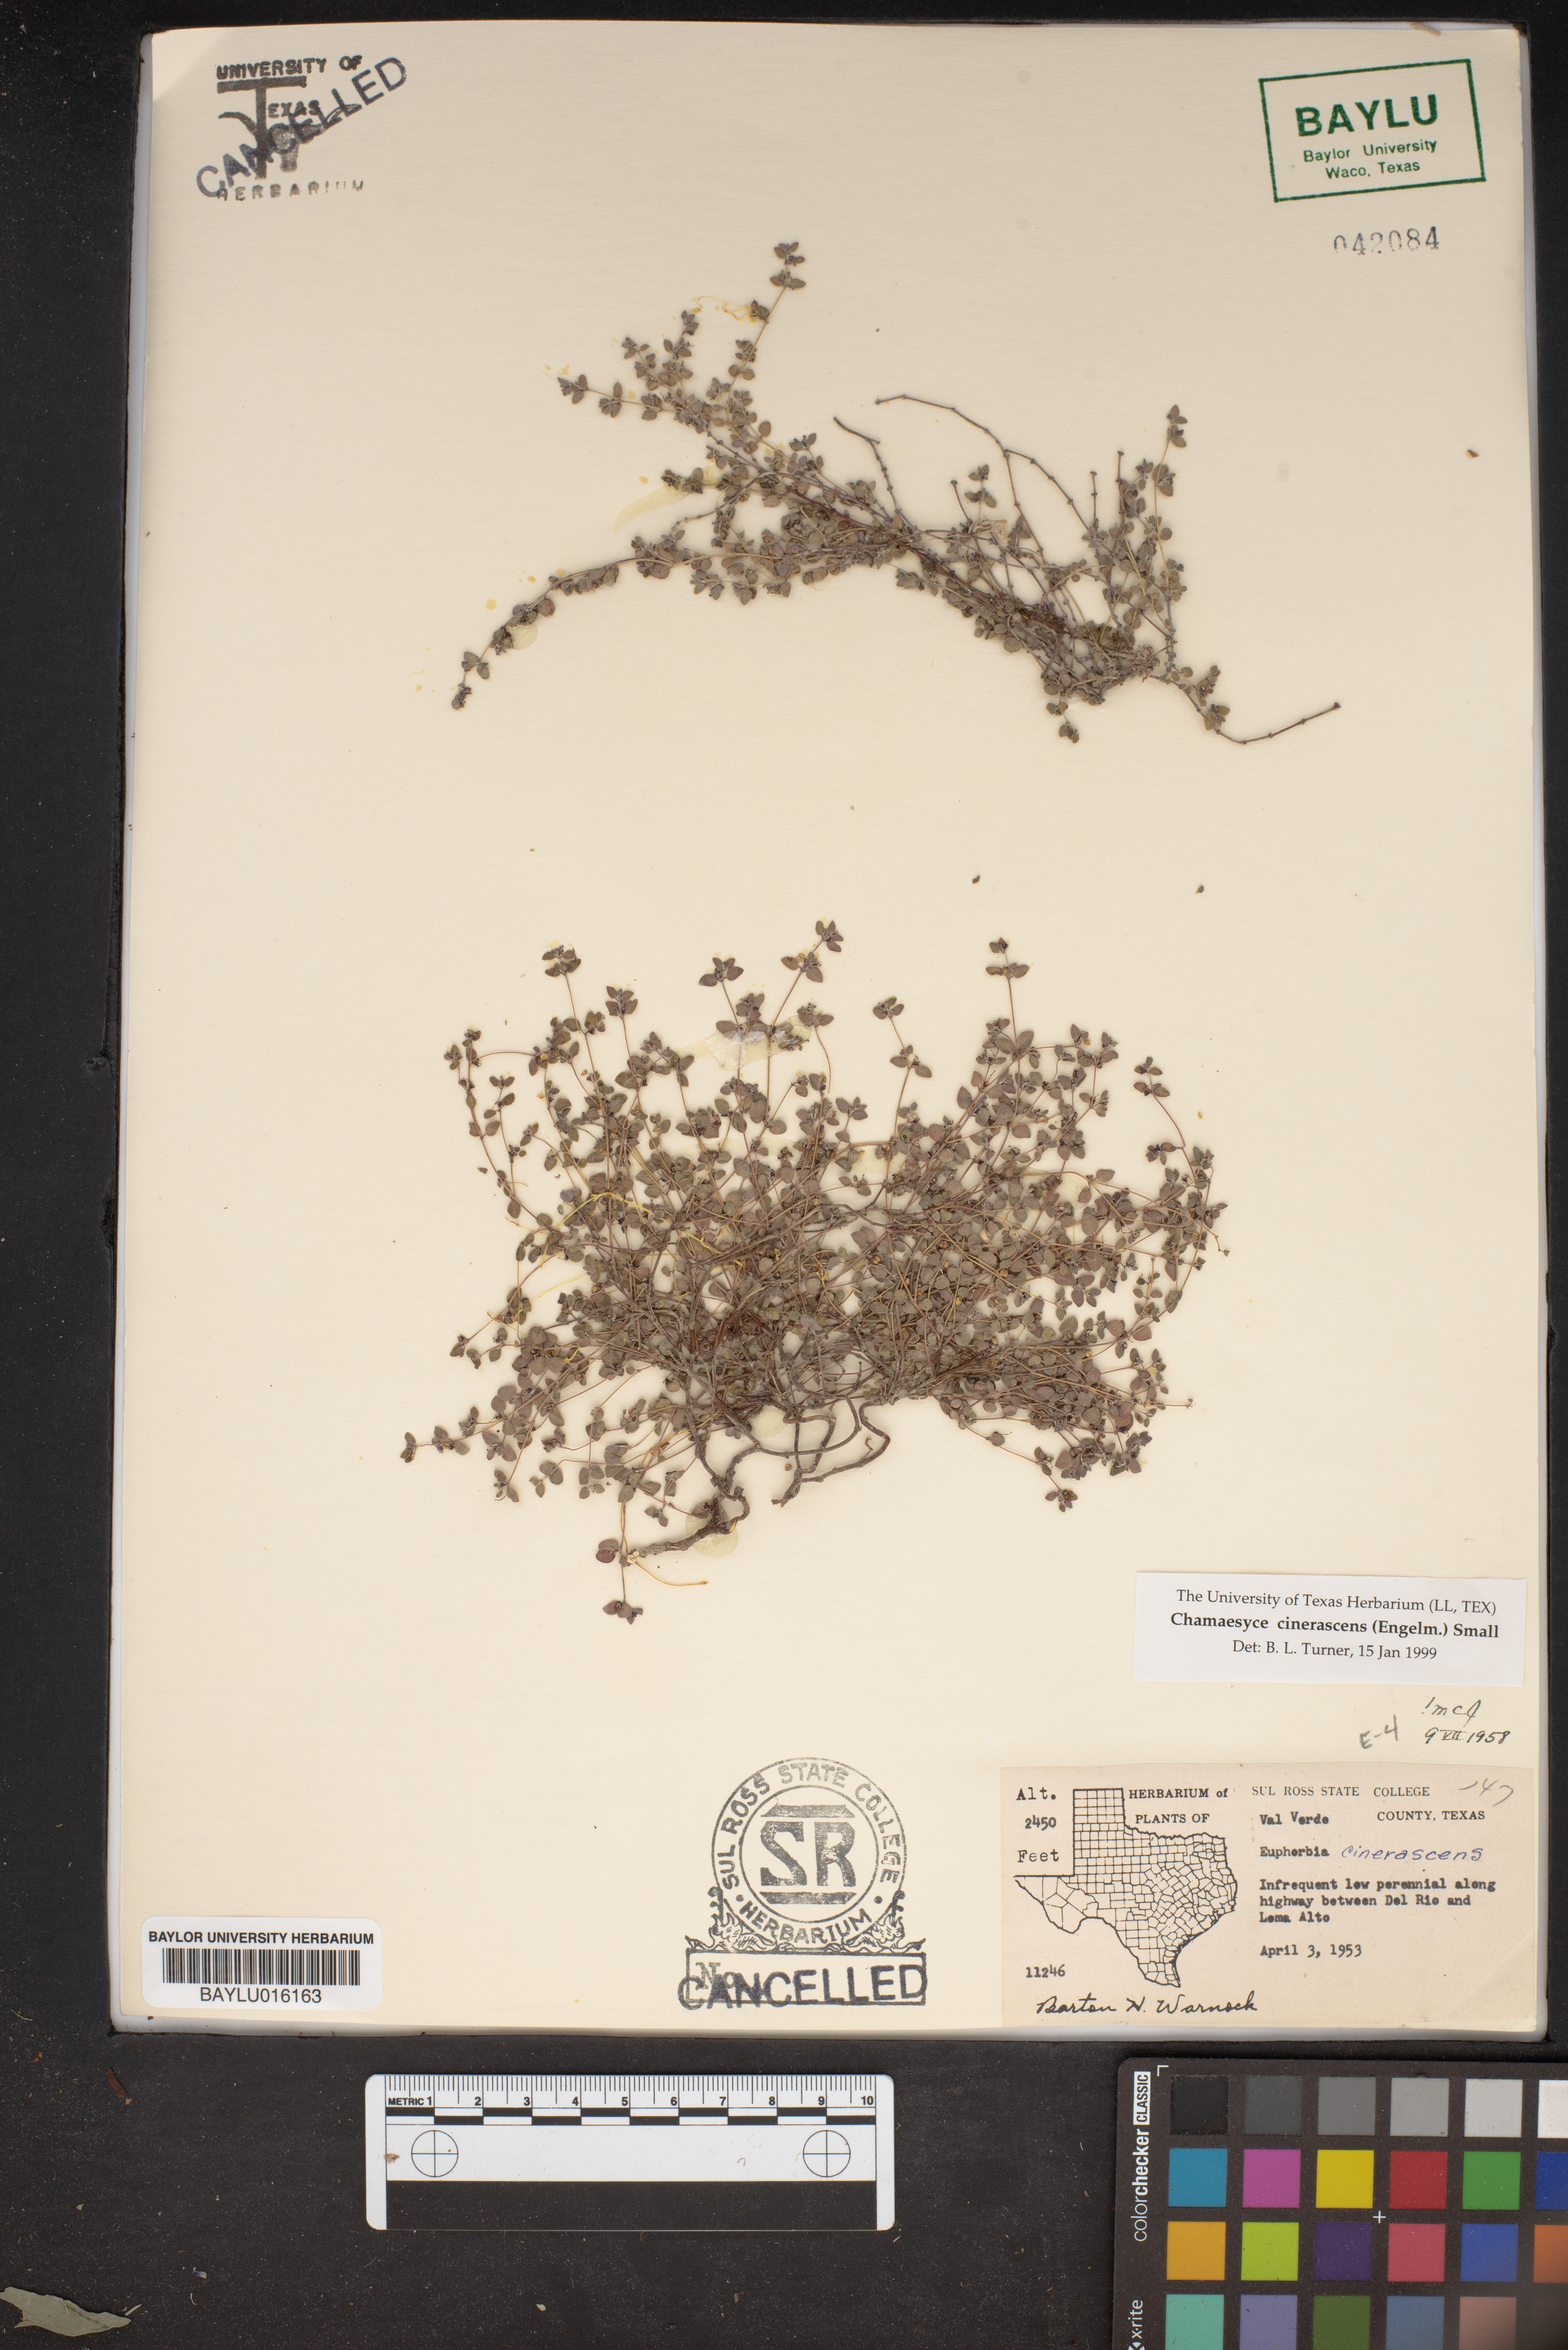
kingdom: Plantae
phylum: Tracheophyta
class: Magnoliopsida
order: Malpighiales
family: Euphorbiaceae
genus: Euphorbia
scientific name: Euphorbia cinerascens
